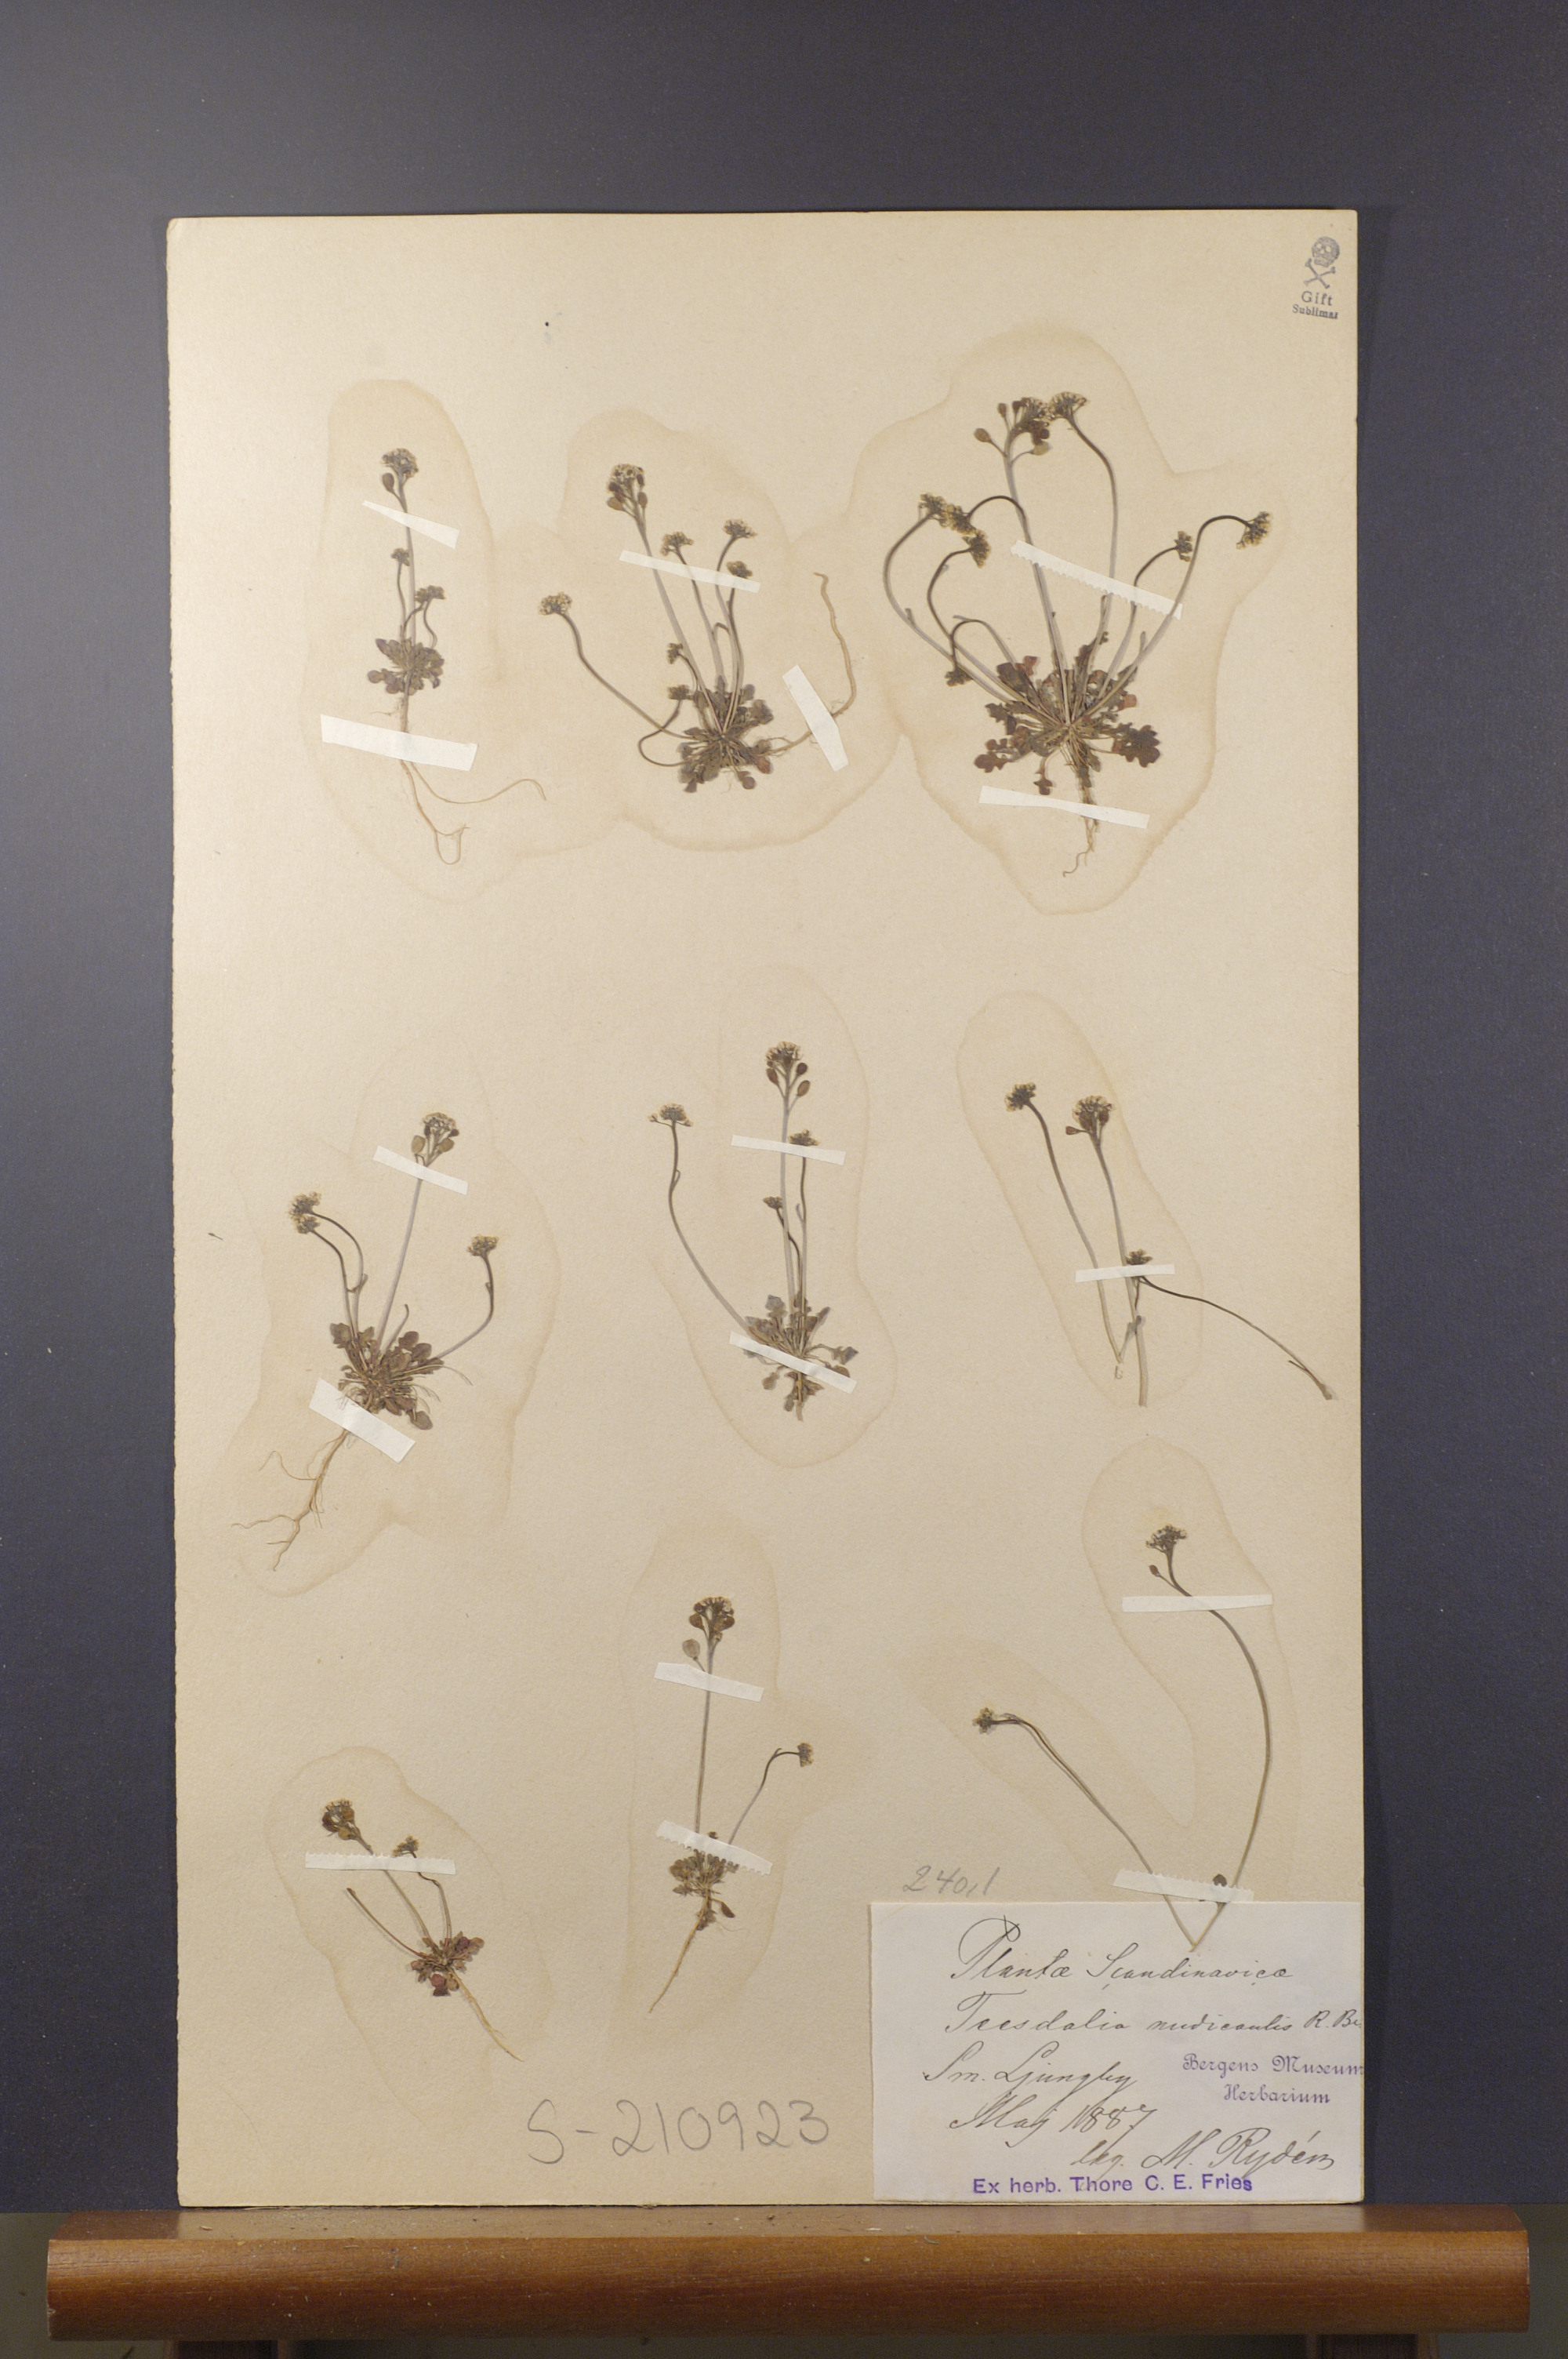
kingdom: Plantae
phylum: Tracheophyta
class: Magnoliopsida
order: Brassicales
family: Brassicaceae
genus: Teesdalia
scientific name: Teesdalia nudicaulis
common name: Shepherd's cress
